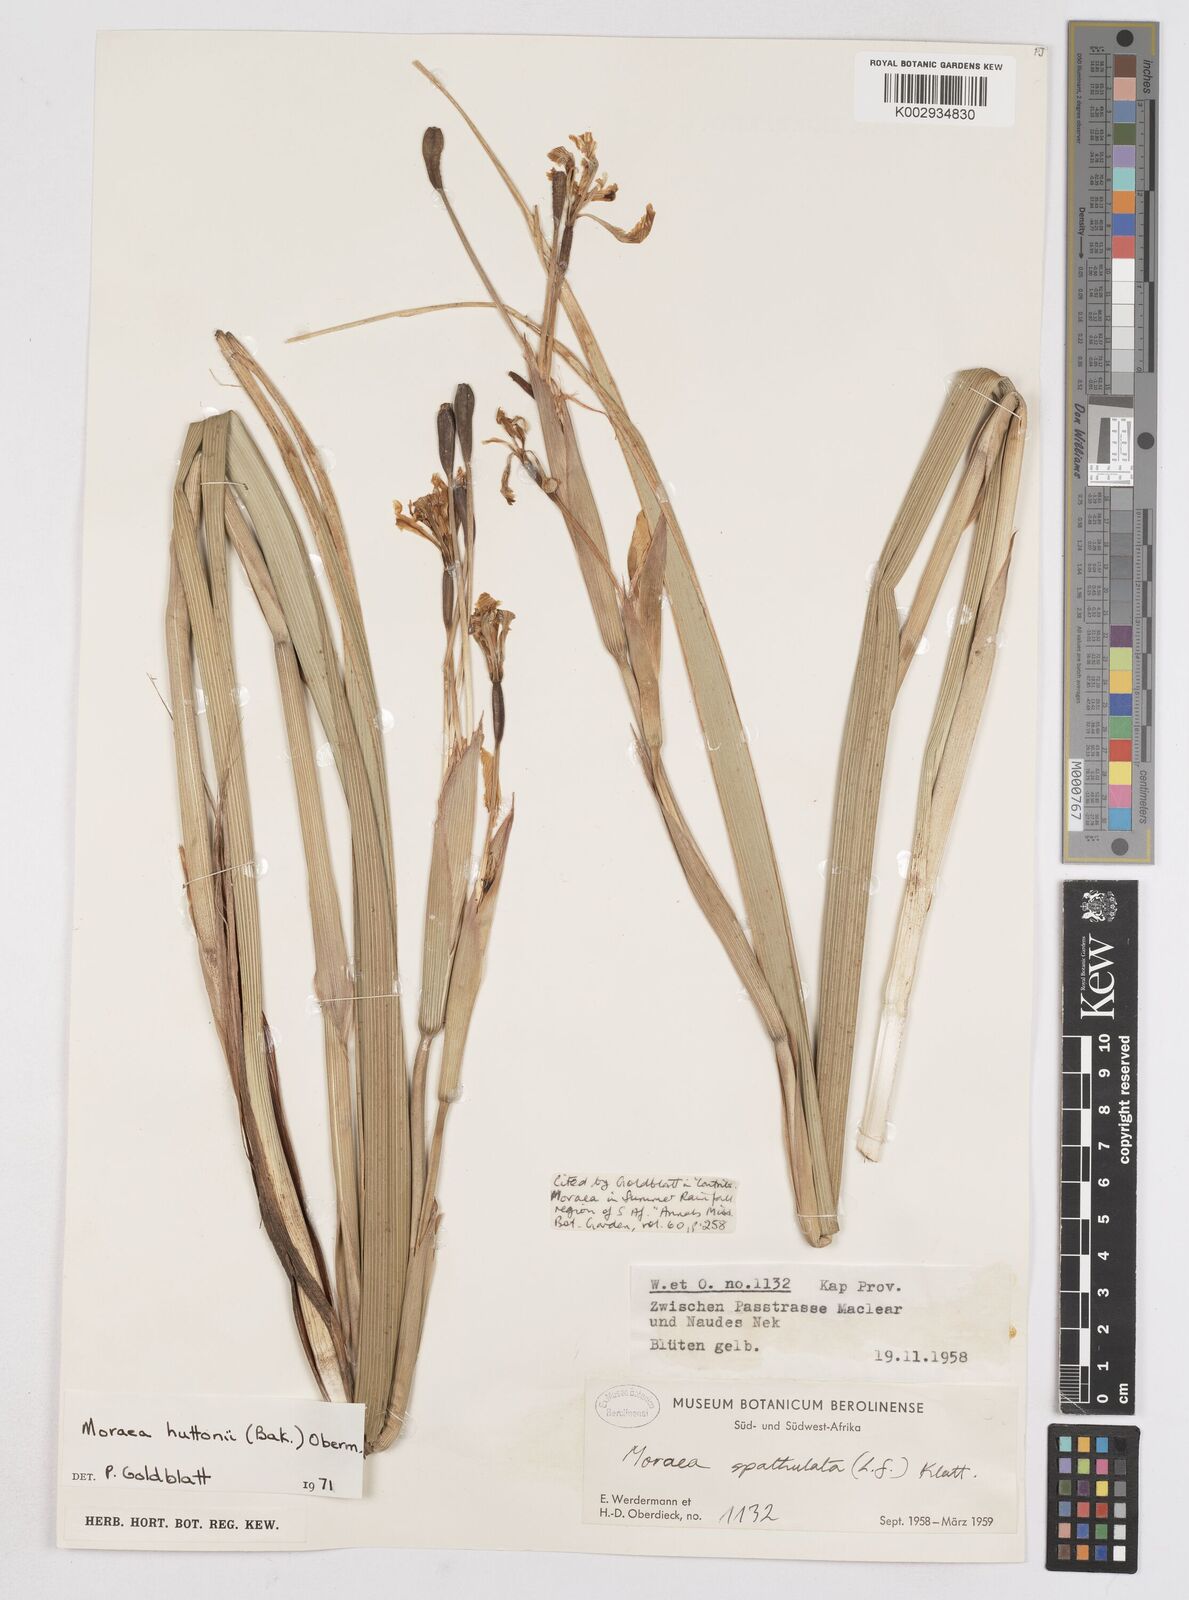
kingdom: Plantae
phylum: Tracheophyta
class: Liliopsida
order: Asparagales
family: Iridaceae
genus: Moraea
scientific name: Moraea huttonii
